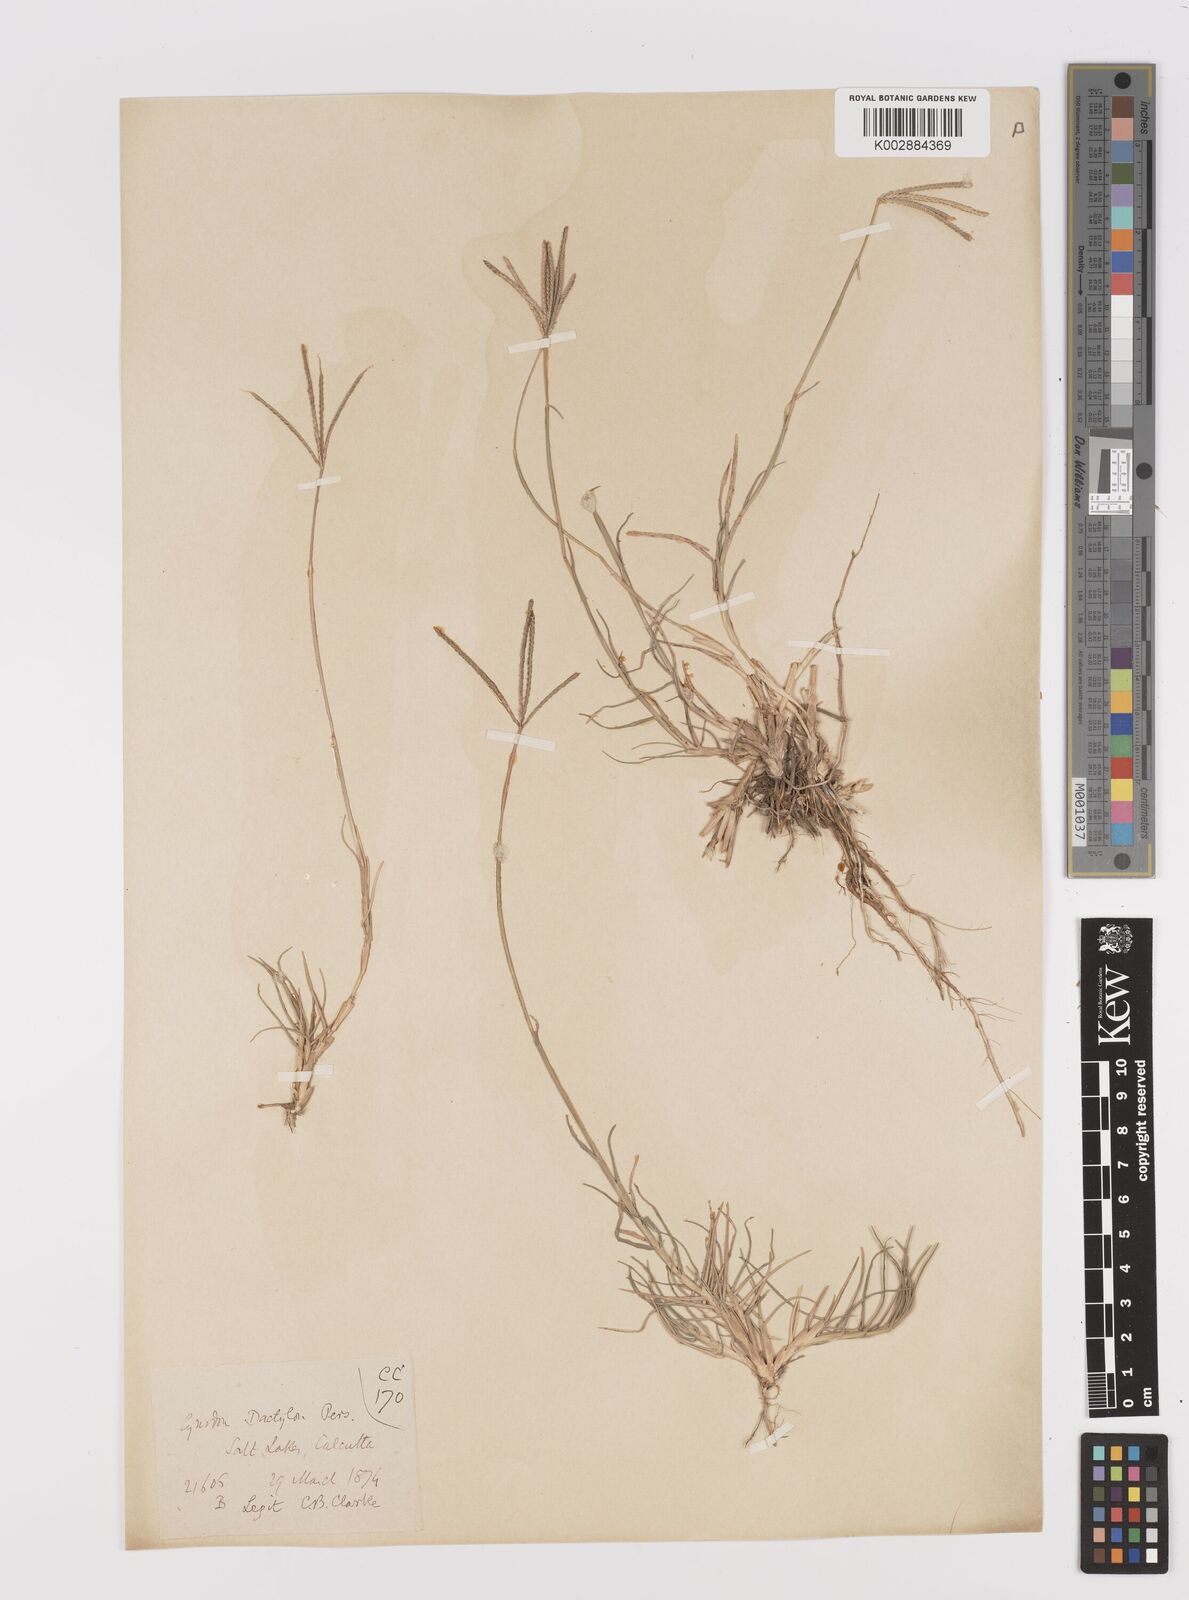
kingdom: Plantae
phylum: Tracheophyta
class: Liliopsida
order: Poales
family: Poaceae
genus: Cynodon
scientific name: Cynodon dactylon
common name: Bermuda grass
